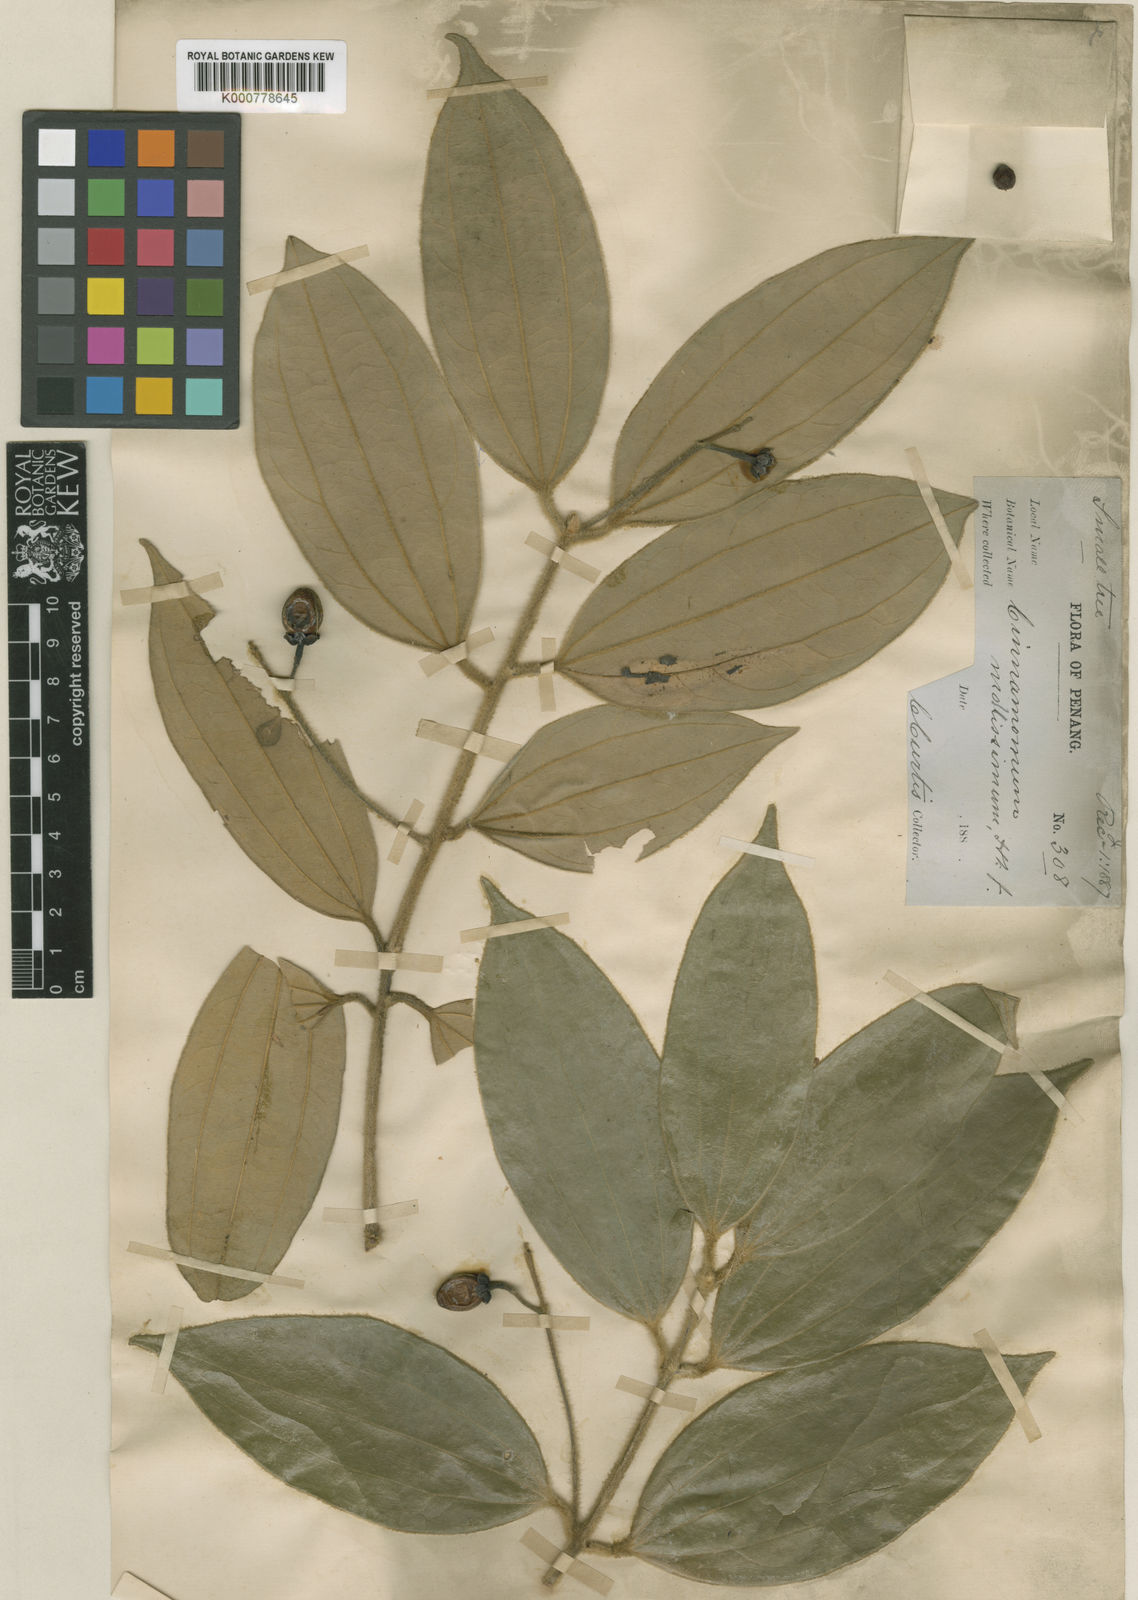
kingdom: Plantae
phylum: Tracheophyta
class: Magnoliopsida
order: Laurales
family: Lauraceae
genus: Cinnamomum
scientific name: Cinnamomum mollissimum
